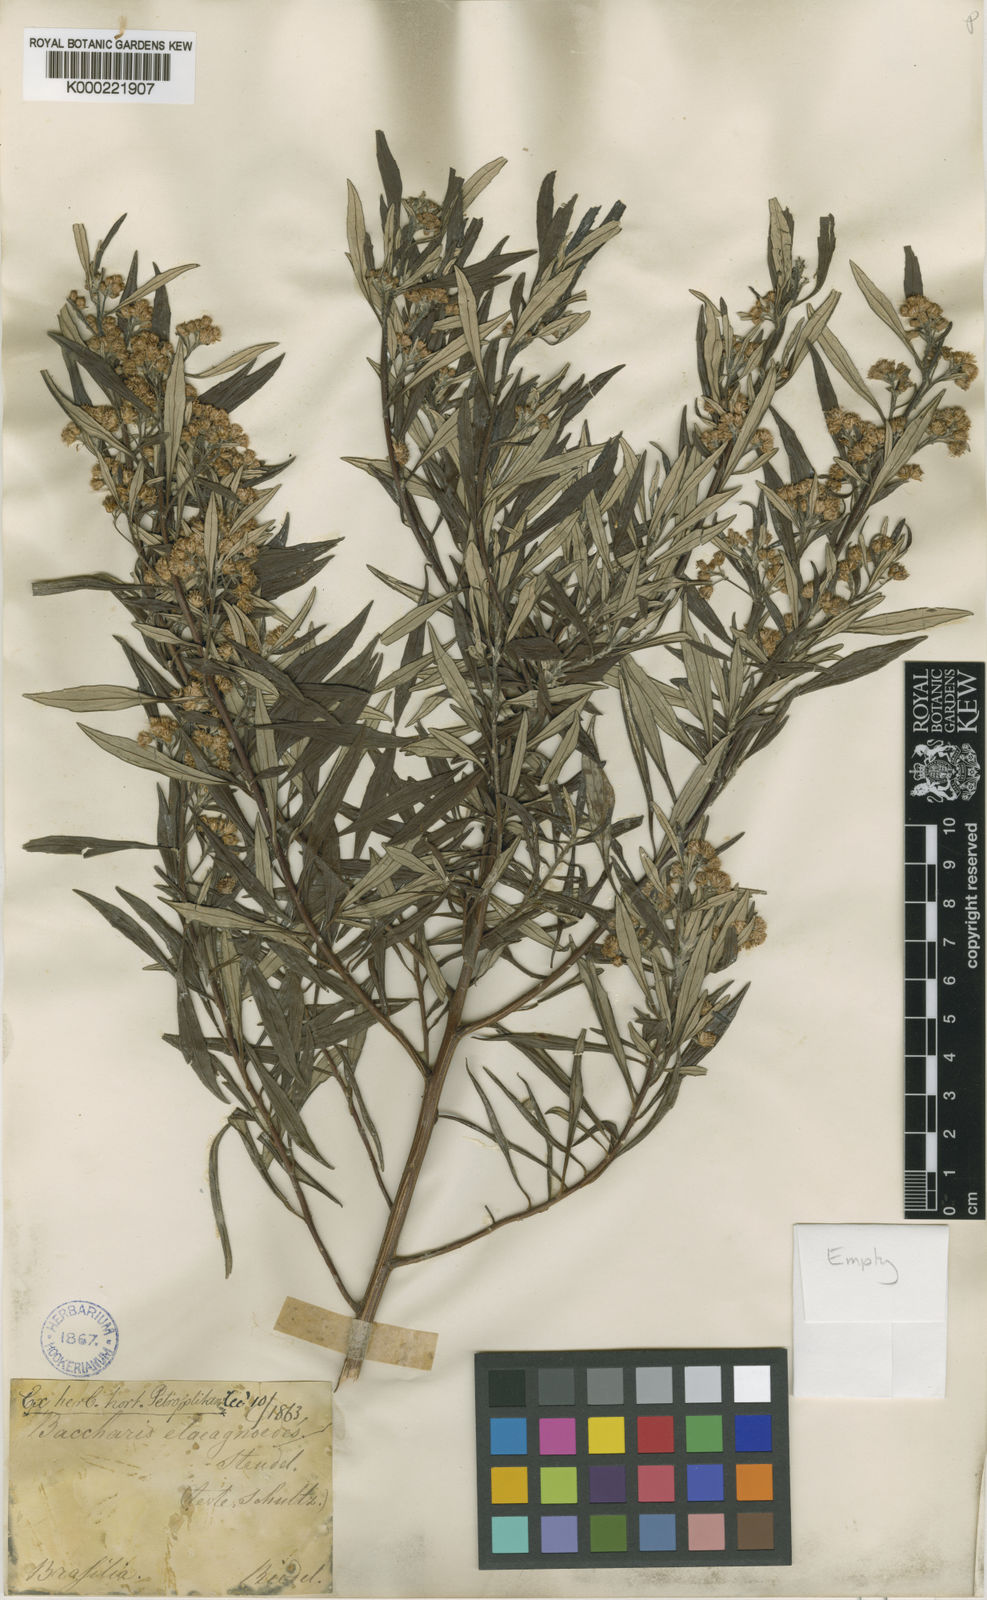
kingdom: Plantae
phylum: Tracheophyta
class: Magnoliopsida
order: Asterales
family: Asteraceae
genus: Baccharis
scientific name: Baccharis
